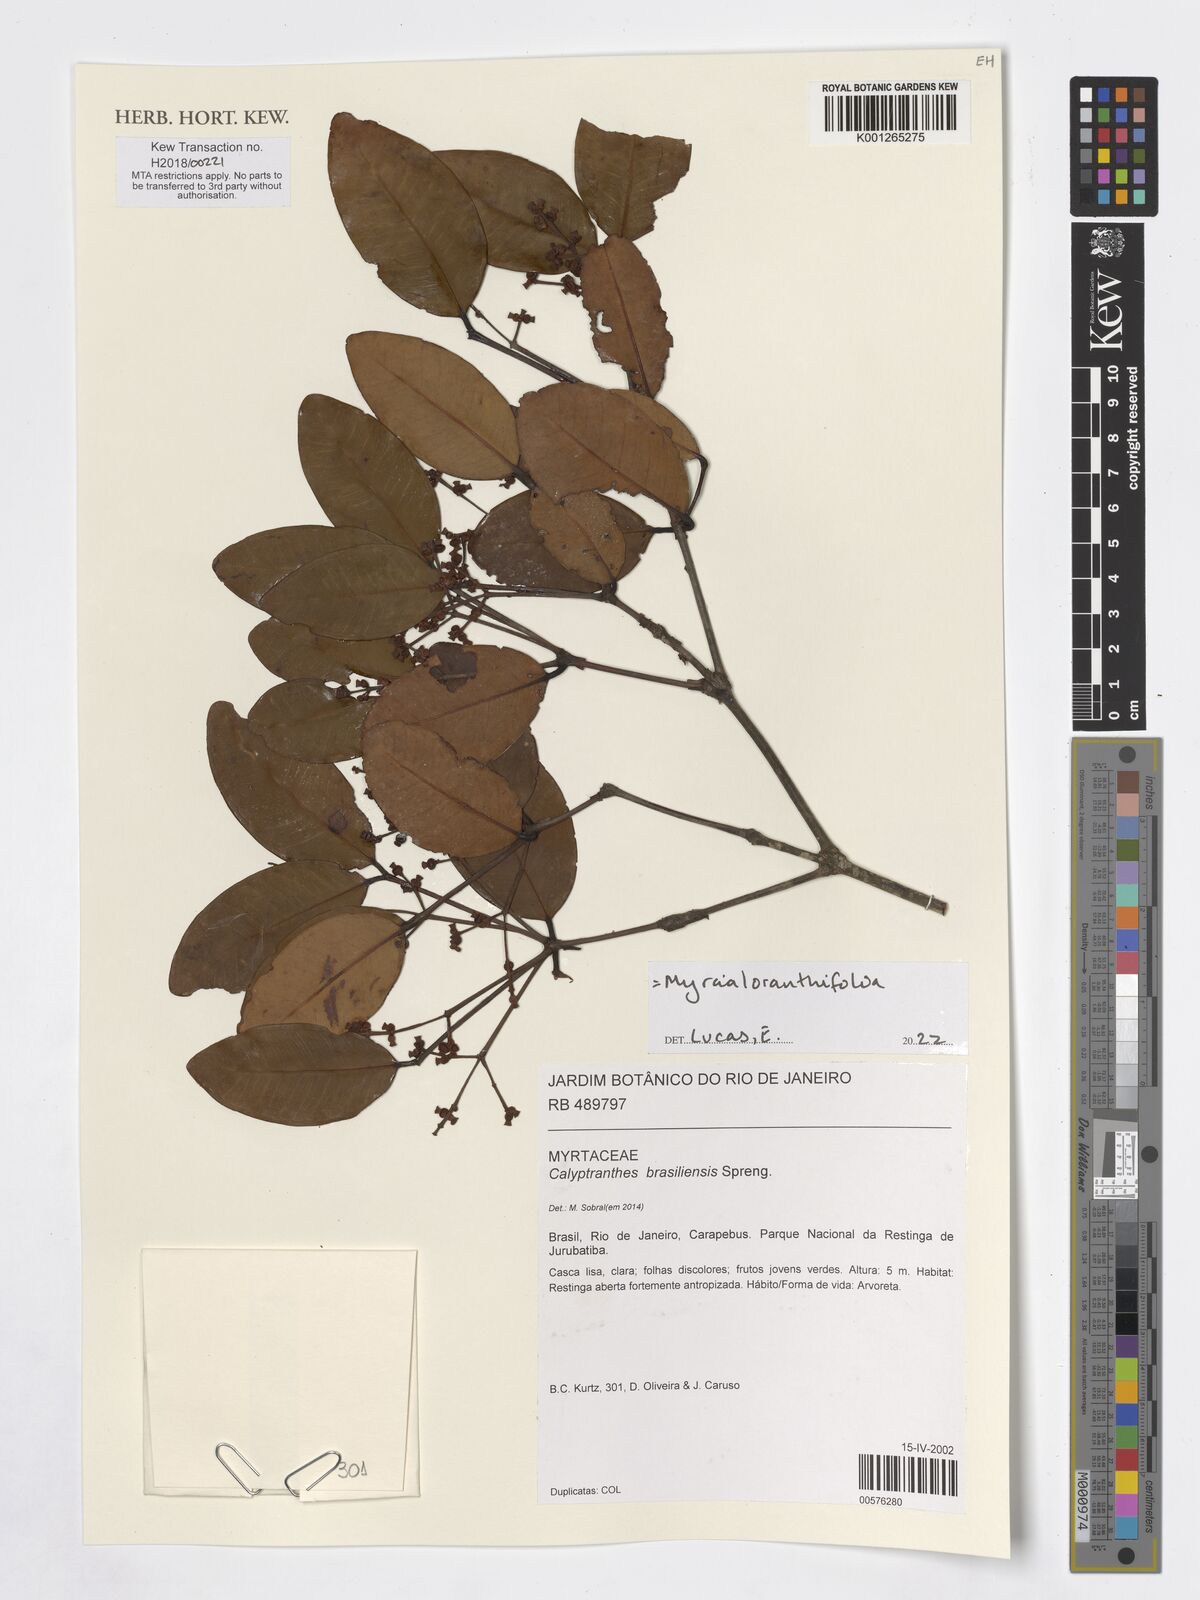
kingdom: Plantae
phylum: Tracheophyta
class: Magnoliopsida
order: Myrtales
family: Myrtaceae
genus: Myrcia
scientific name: Myrcia neobrasiliensis
